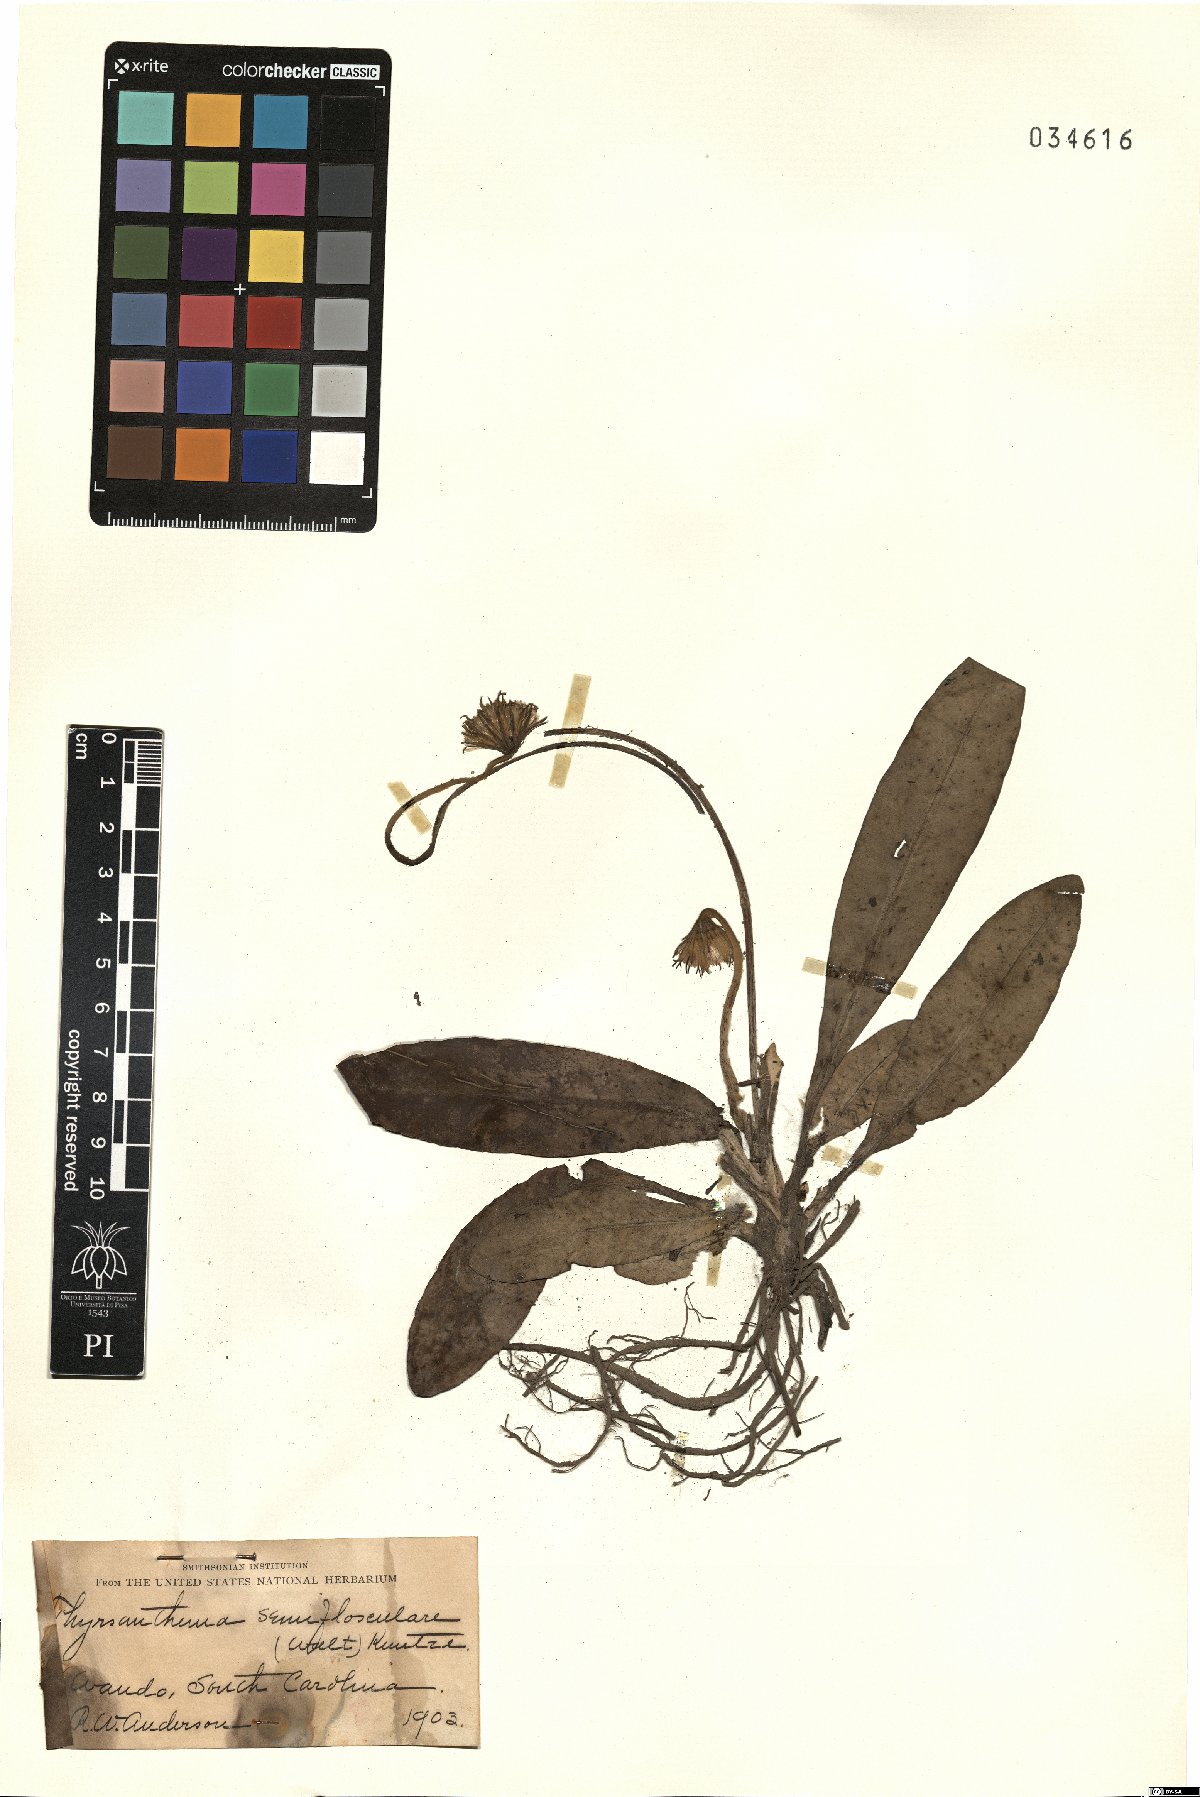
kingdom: Plantae
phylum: Tracheophyta
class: Magnoliopsida
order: Asterales
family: Asteraceae
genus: Chaptalia
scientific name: Chaptalia tomentosa
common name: Woolly sunbonnet
